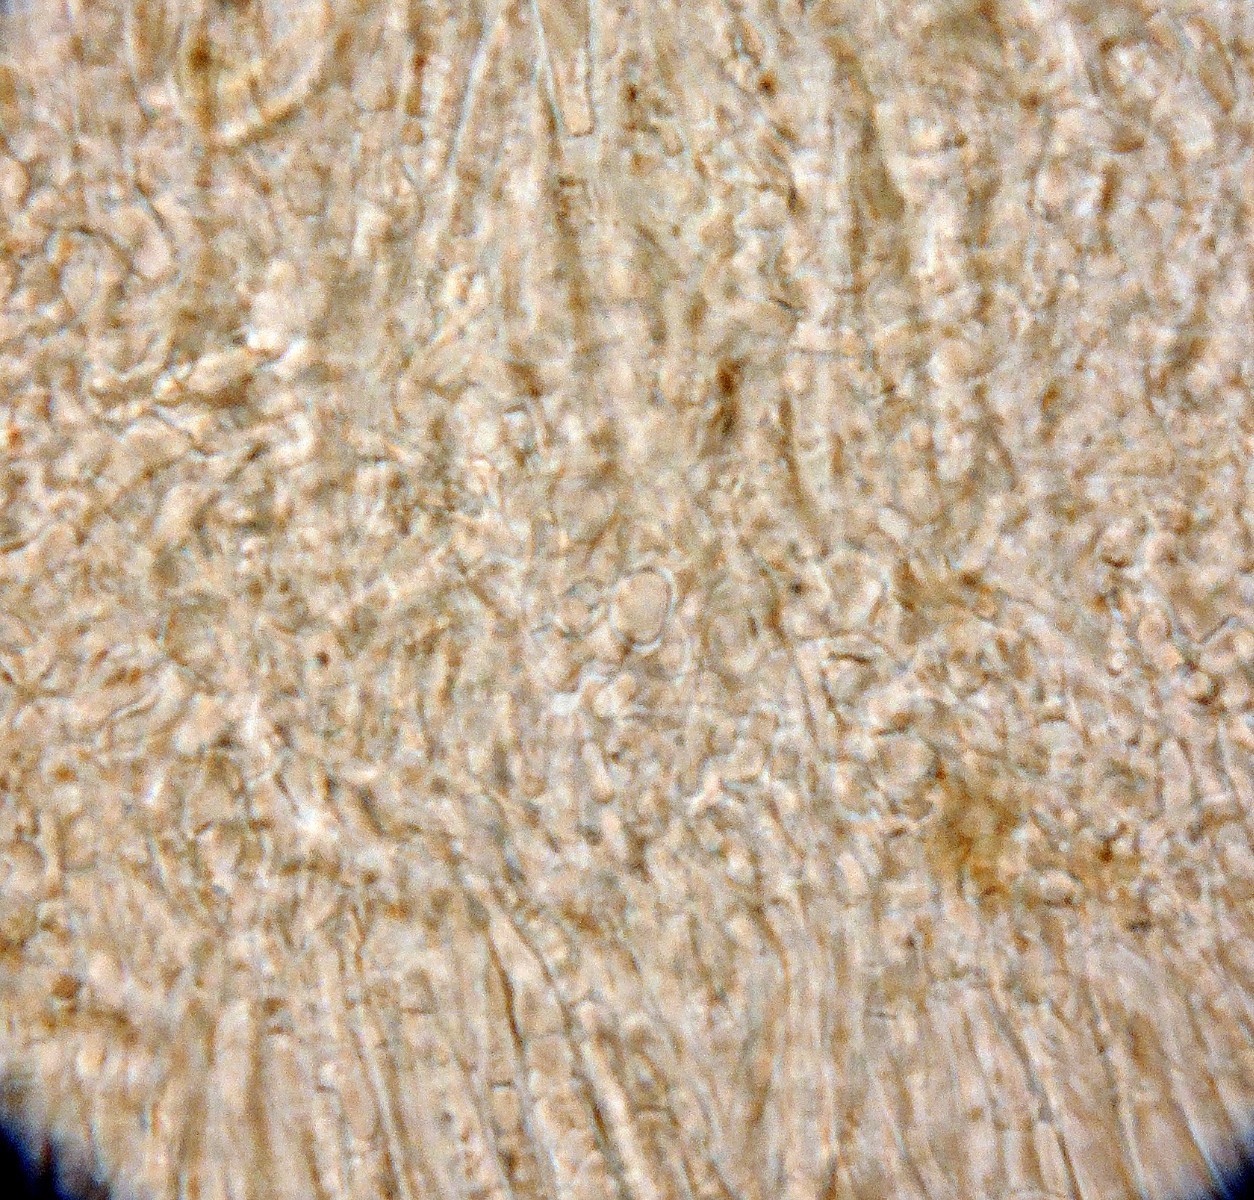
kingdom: Fungi
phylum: Ascomycota
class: Leotiomycetes
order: Helotiales
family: Pezizellaceae
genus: Gemmina
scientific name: Gemmina gemmarum
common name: poppelskæl-gulskive
